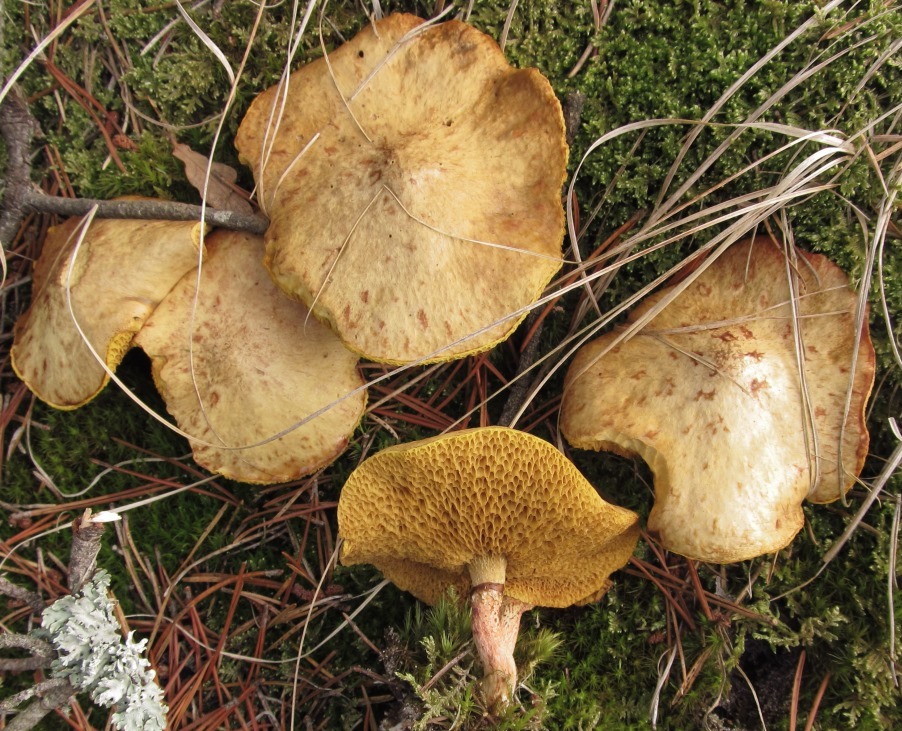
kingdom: Fungi
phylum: Basidiomycota
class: Agaricomycetes
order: Boletales
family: Suillaceae
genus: Suillus
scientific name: Suillus flavidus
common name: mose-slimrørhat
